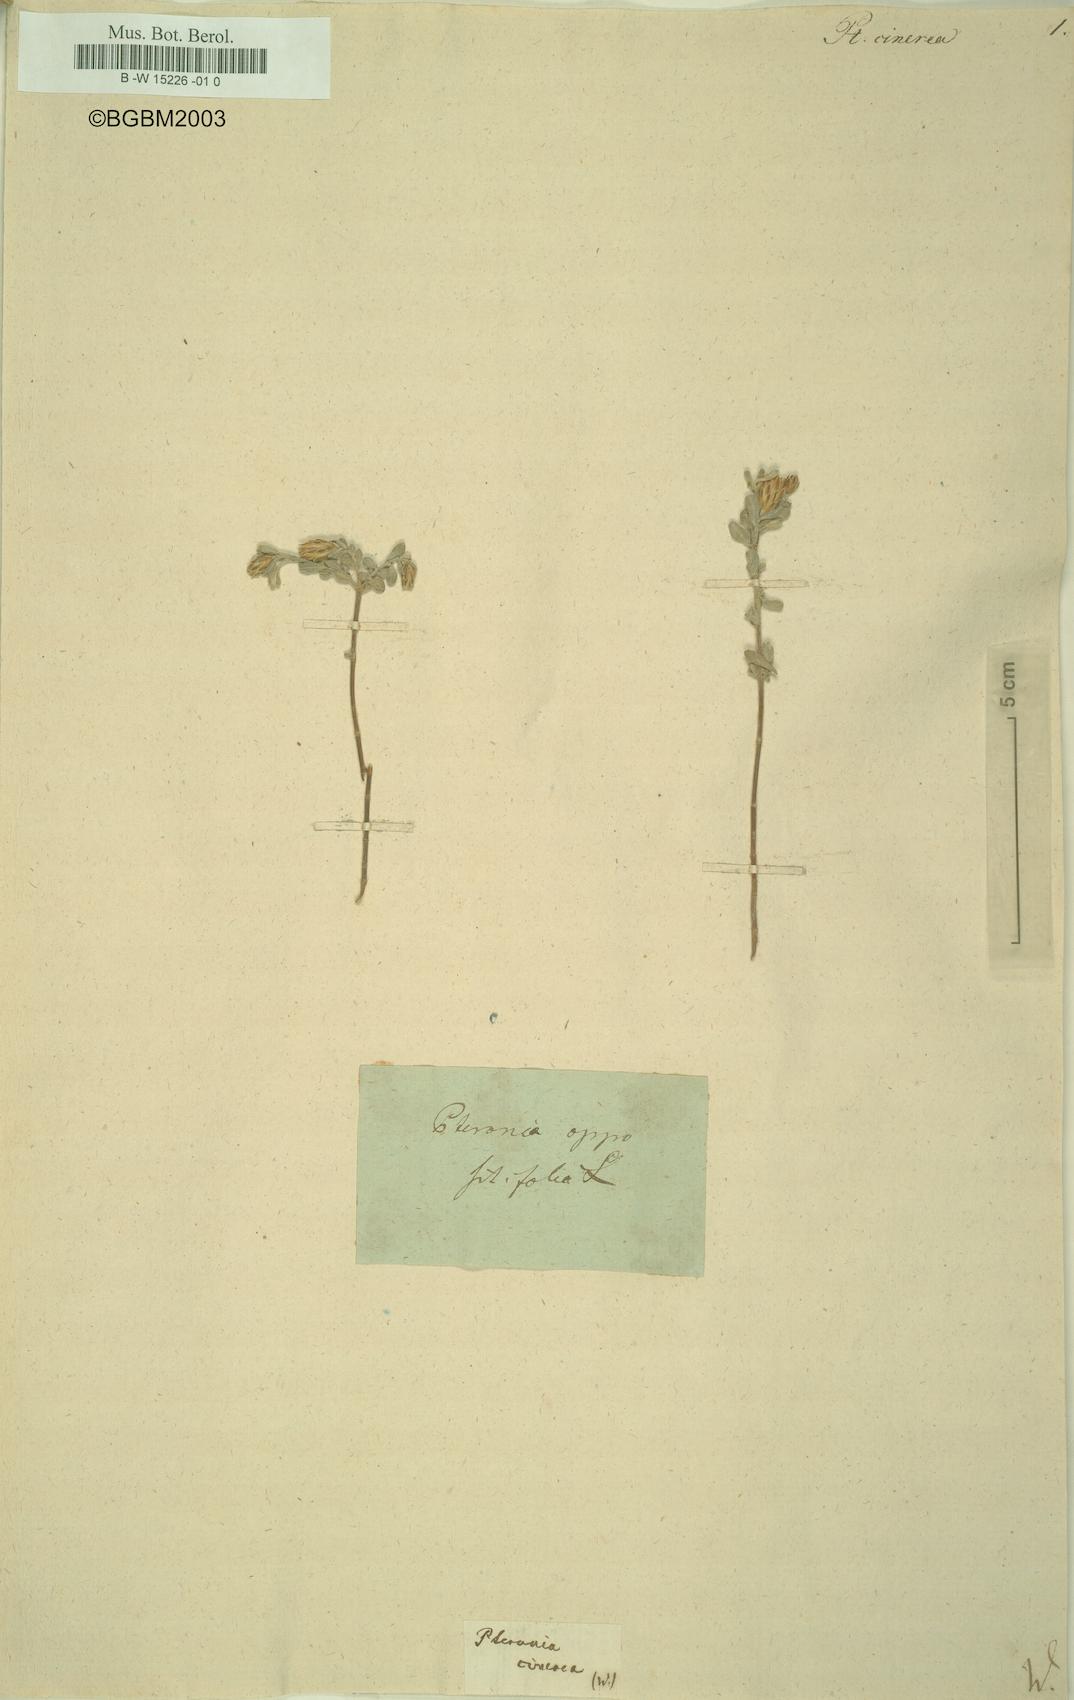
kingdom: Plantae
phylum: Tracheophyta
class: Magnoliopsida
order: Asterales
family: Asteraceae
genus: Pteronia
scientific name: Pteronia cinerea
